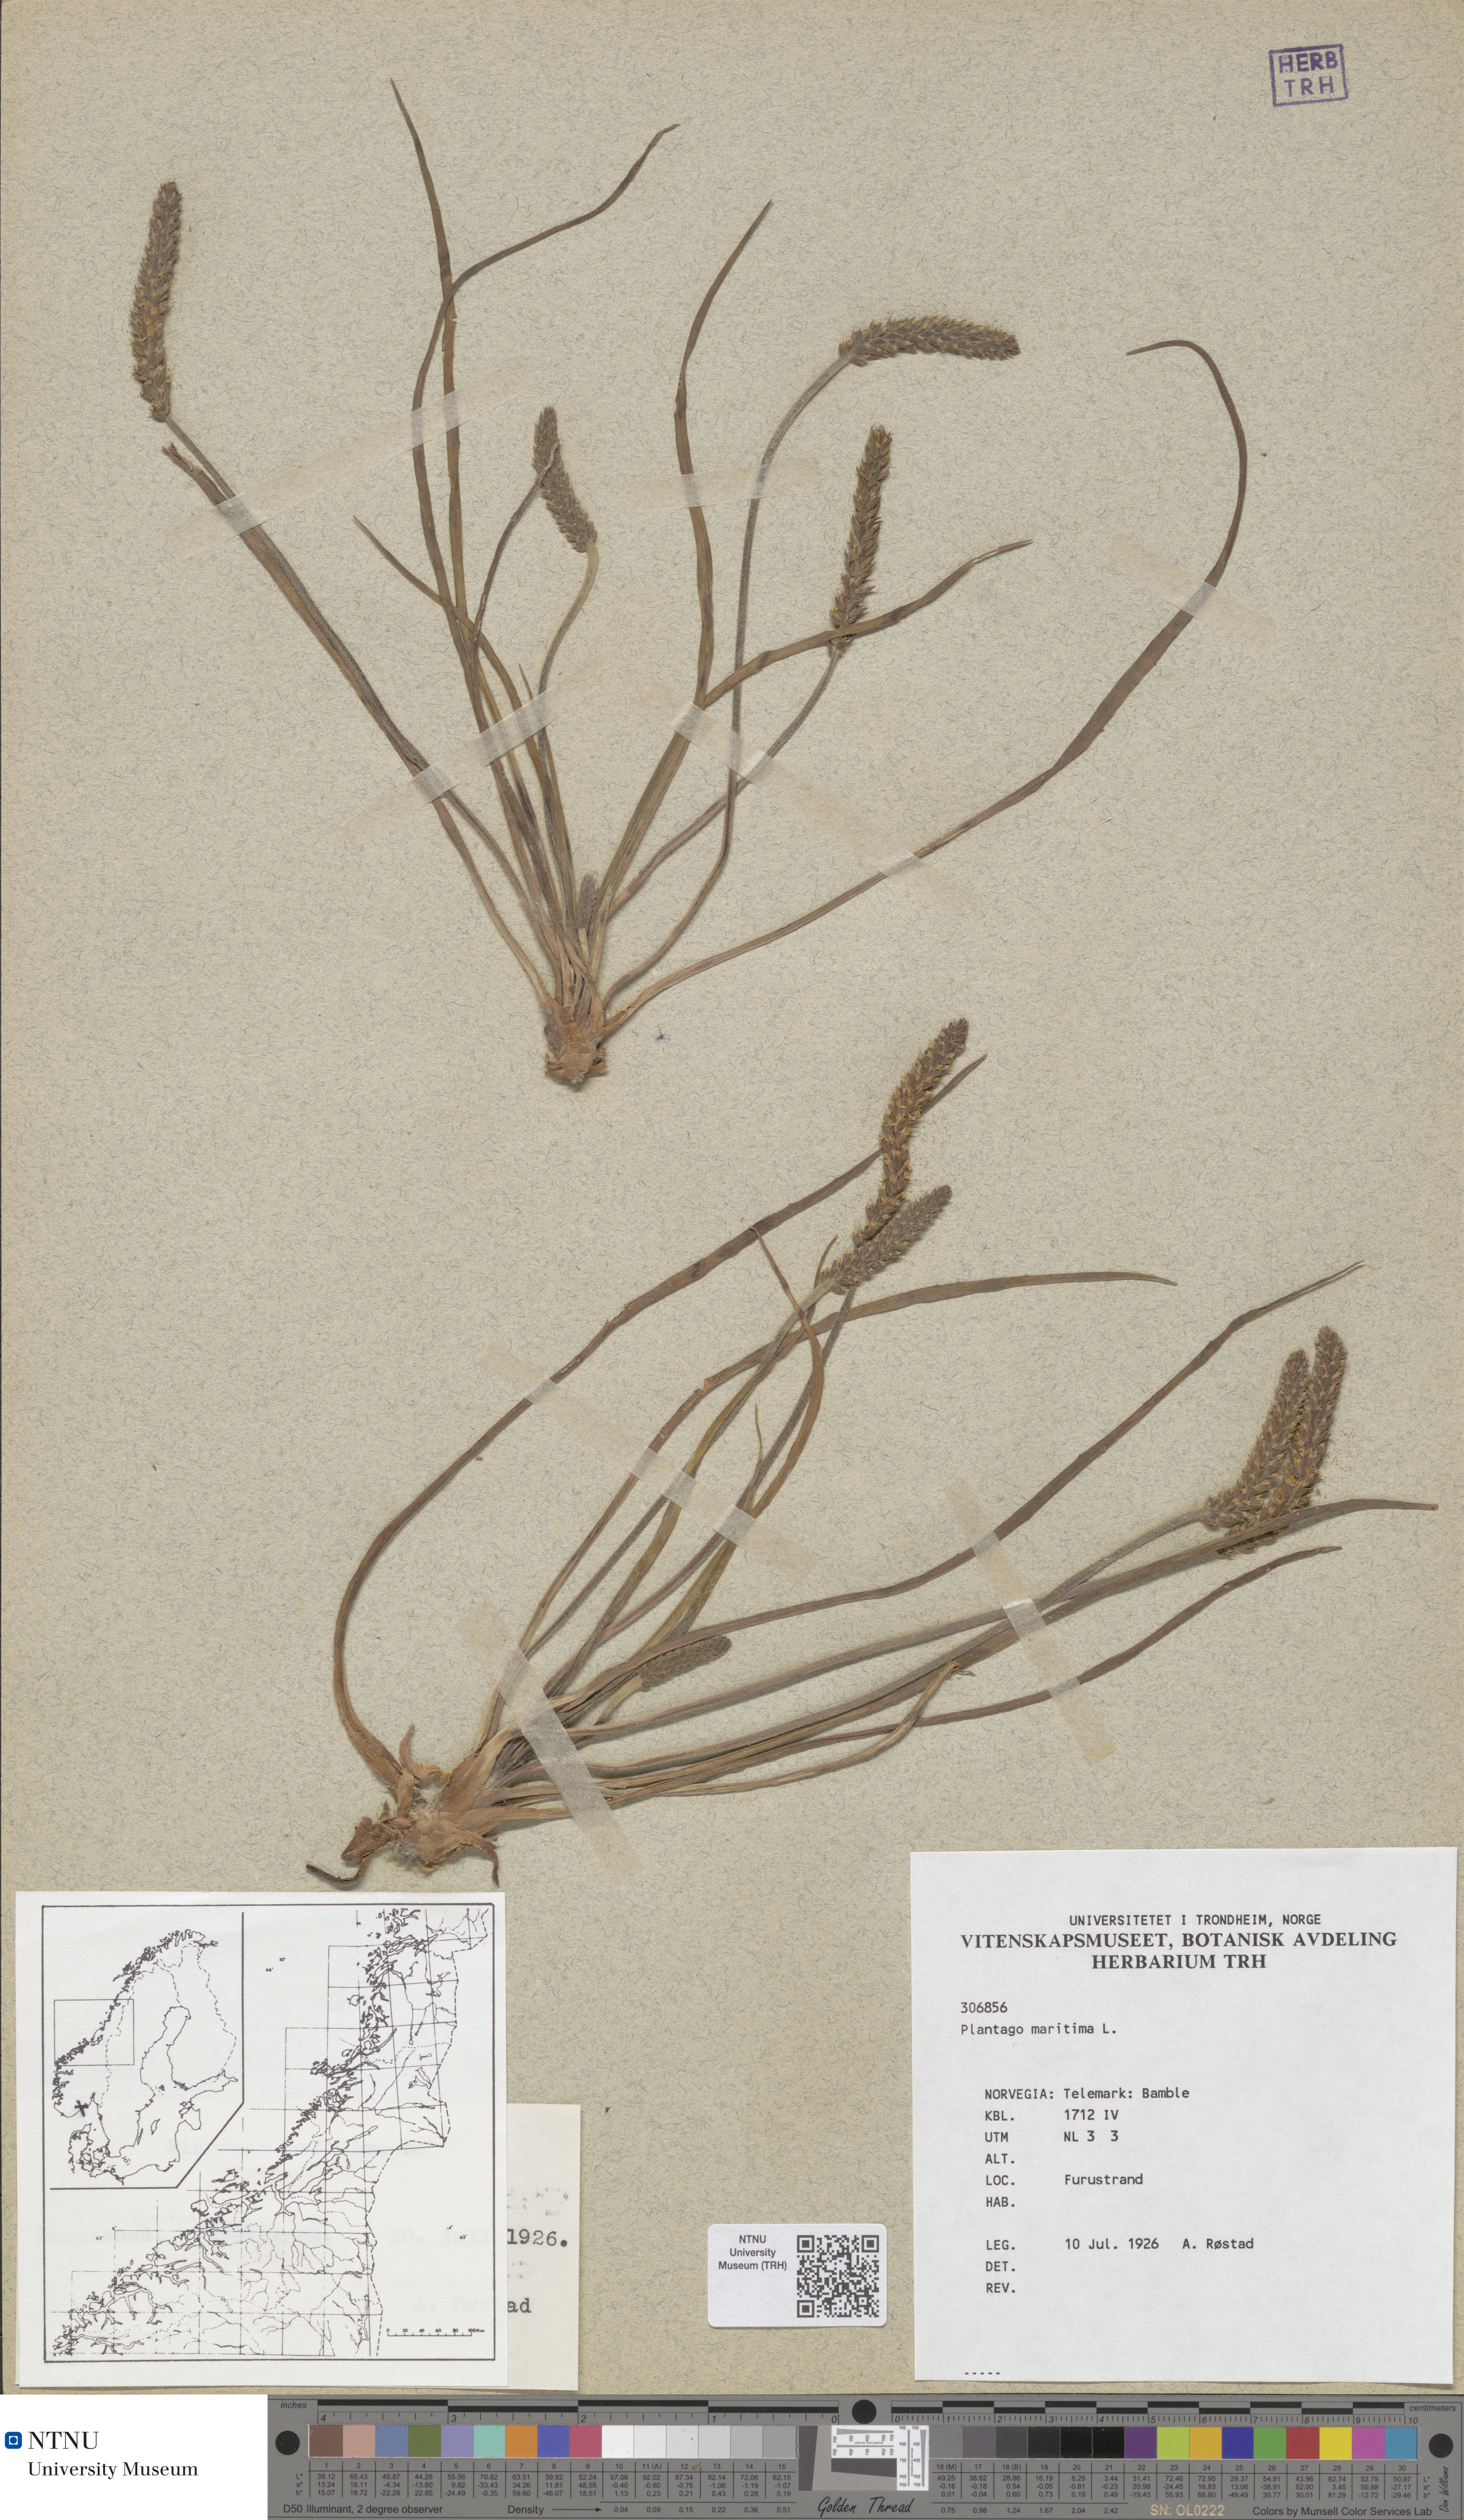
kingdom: Plantae
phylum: Tracheophyta
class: Magnoliopsida
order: Lamiales
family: Plantaginaceae
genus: Plantago
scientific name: Plantago maritima
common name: Sea plantain
